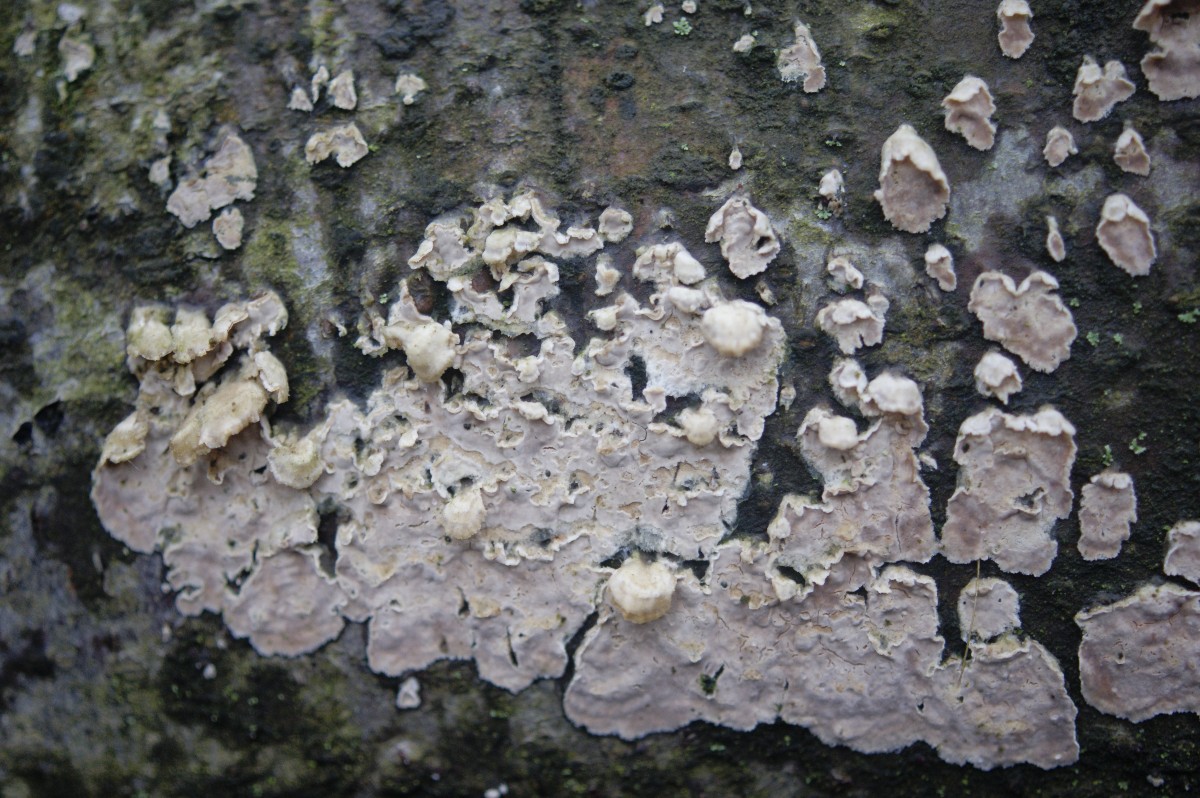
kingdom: Fungi
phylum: Basidiomycota
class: Agaricomycetes
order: Agaricales
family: Physalacriaceae
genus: Cylindrobasidium
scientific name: Cylindrobasidium evolvens
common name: sprækkehinde
